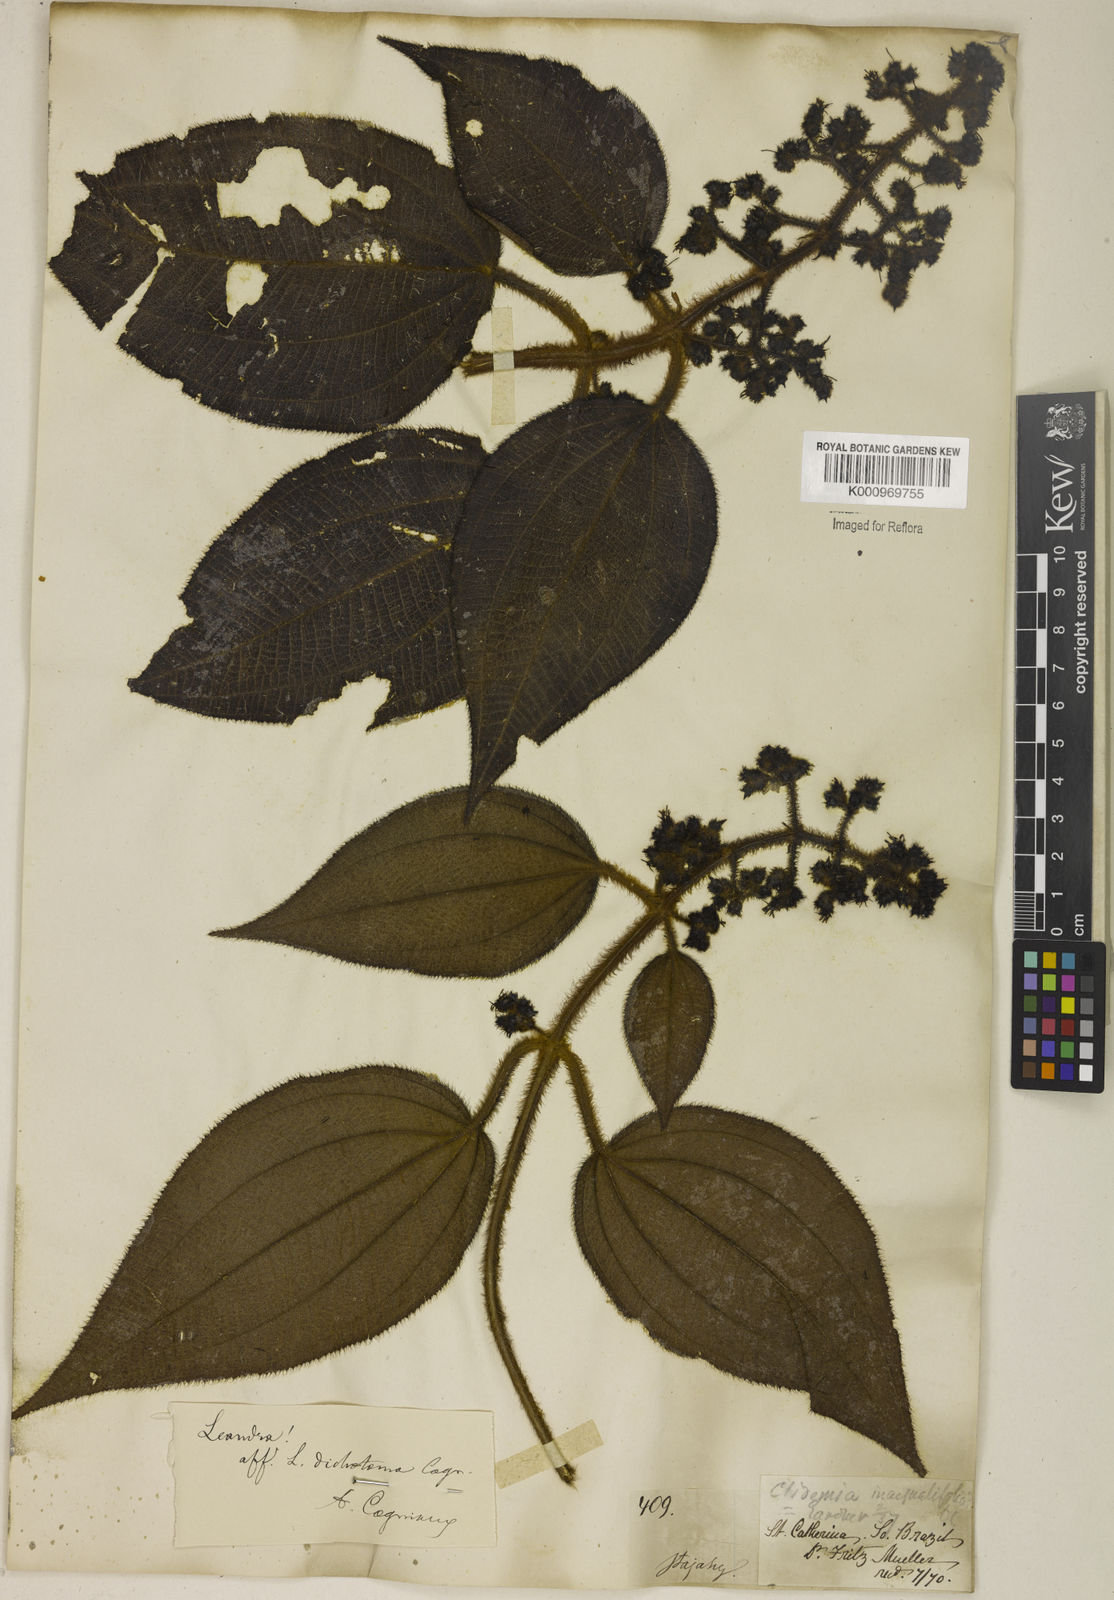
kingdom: Plantae
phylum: Tracheophyta
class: Magnoliopsida
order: Myrtales
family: Melastomataceae
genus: Miconia
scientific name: Miconia sulcicaulis
